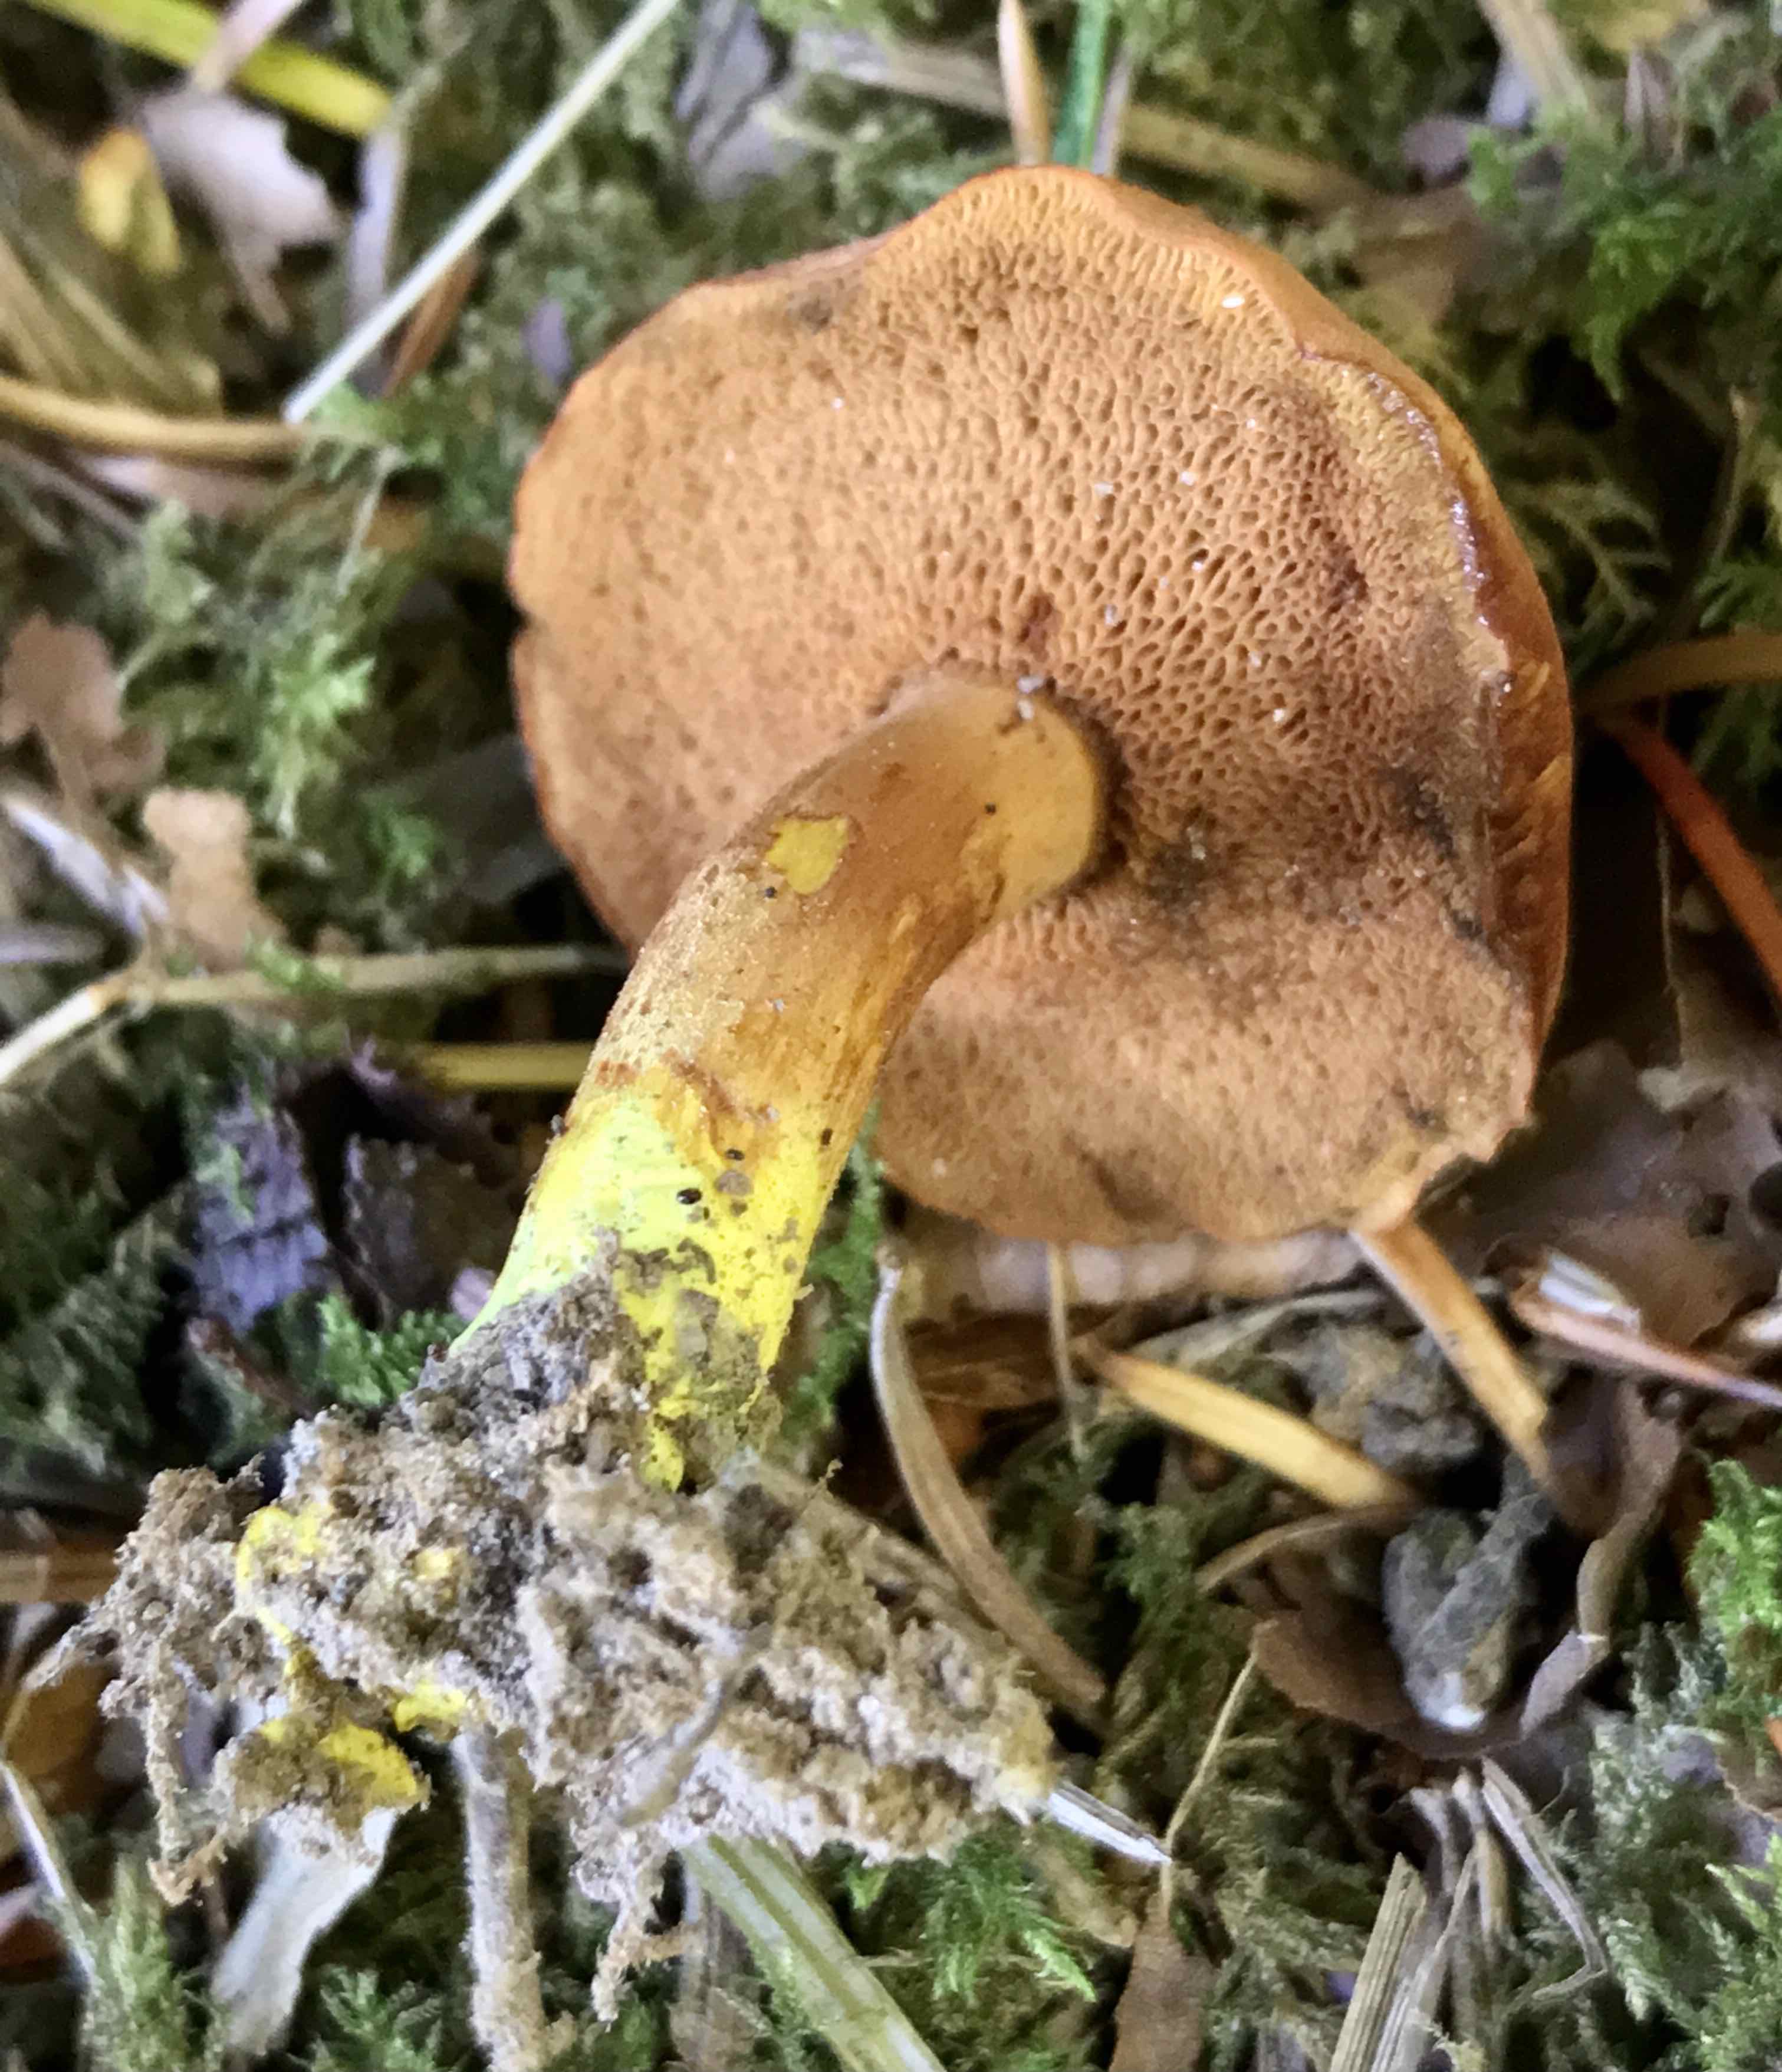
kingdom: Fungi
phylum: Basidiomycota
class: Agaricomycetes
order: Boletales
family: Boletaceae
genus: Chalciporus
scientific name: Chalciporus piperatus
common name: peberrørhat
